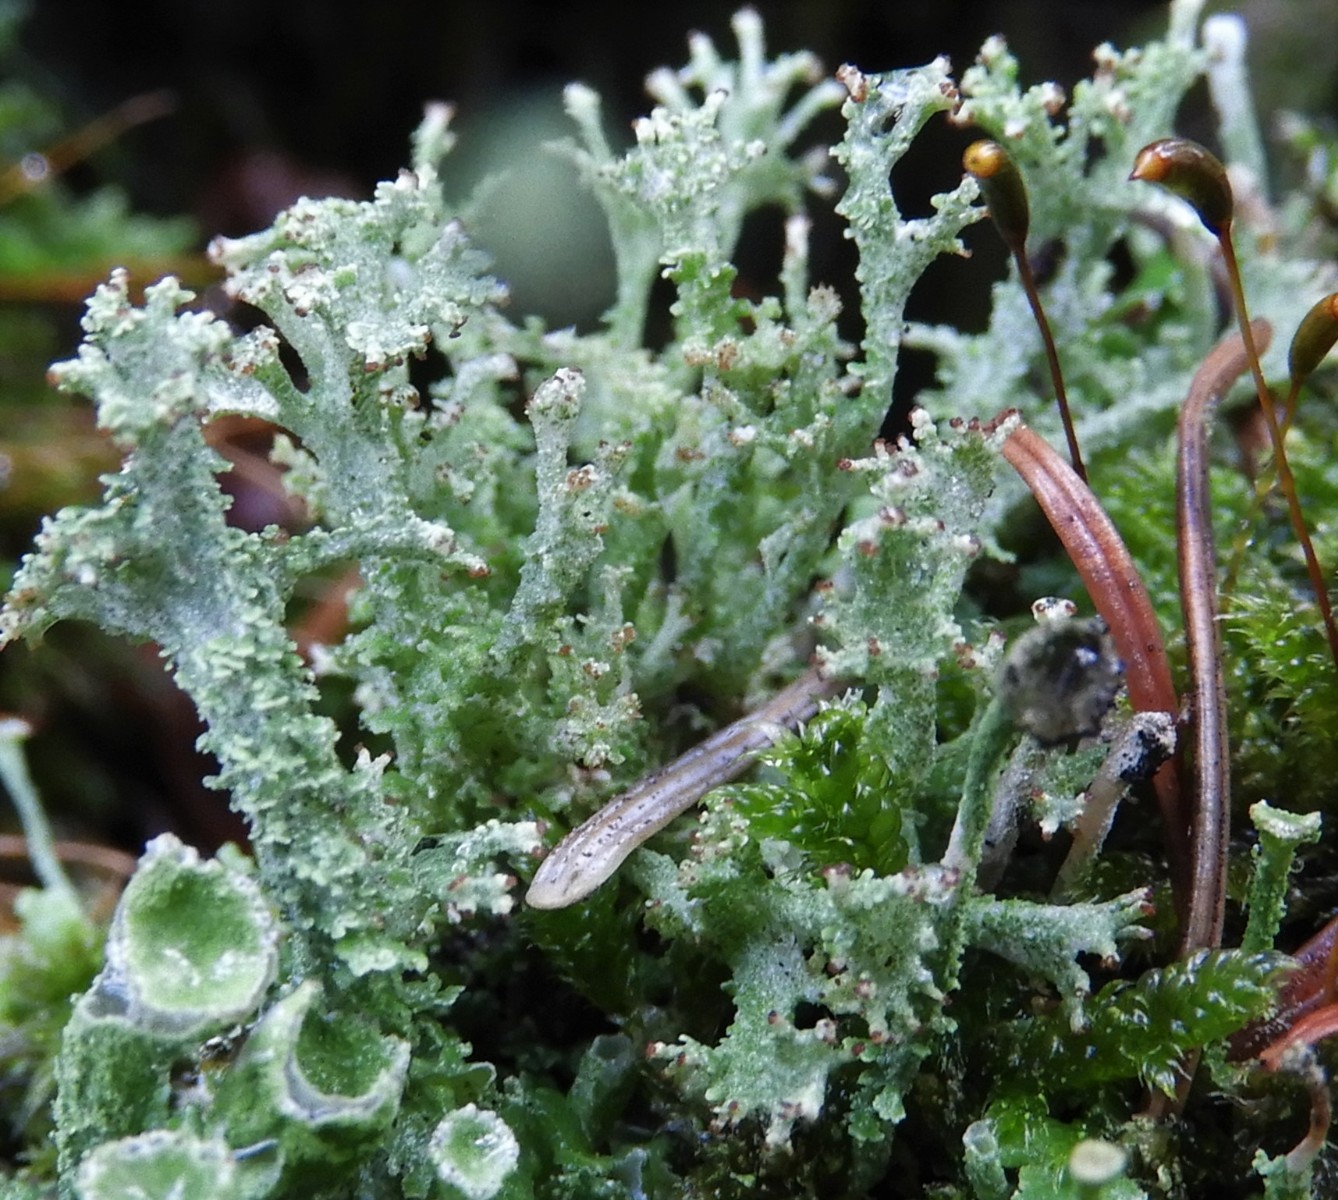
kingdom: Fungi
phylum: Ascomycota
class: Lecanoromycetes
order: Lecanorales
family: Cladoniaceae
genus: Cladonia
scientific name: Cladonia ramulosa
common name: kliddet bægerlav
